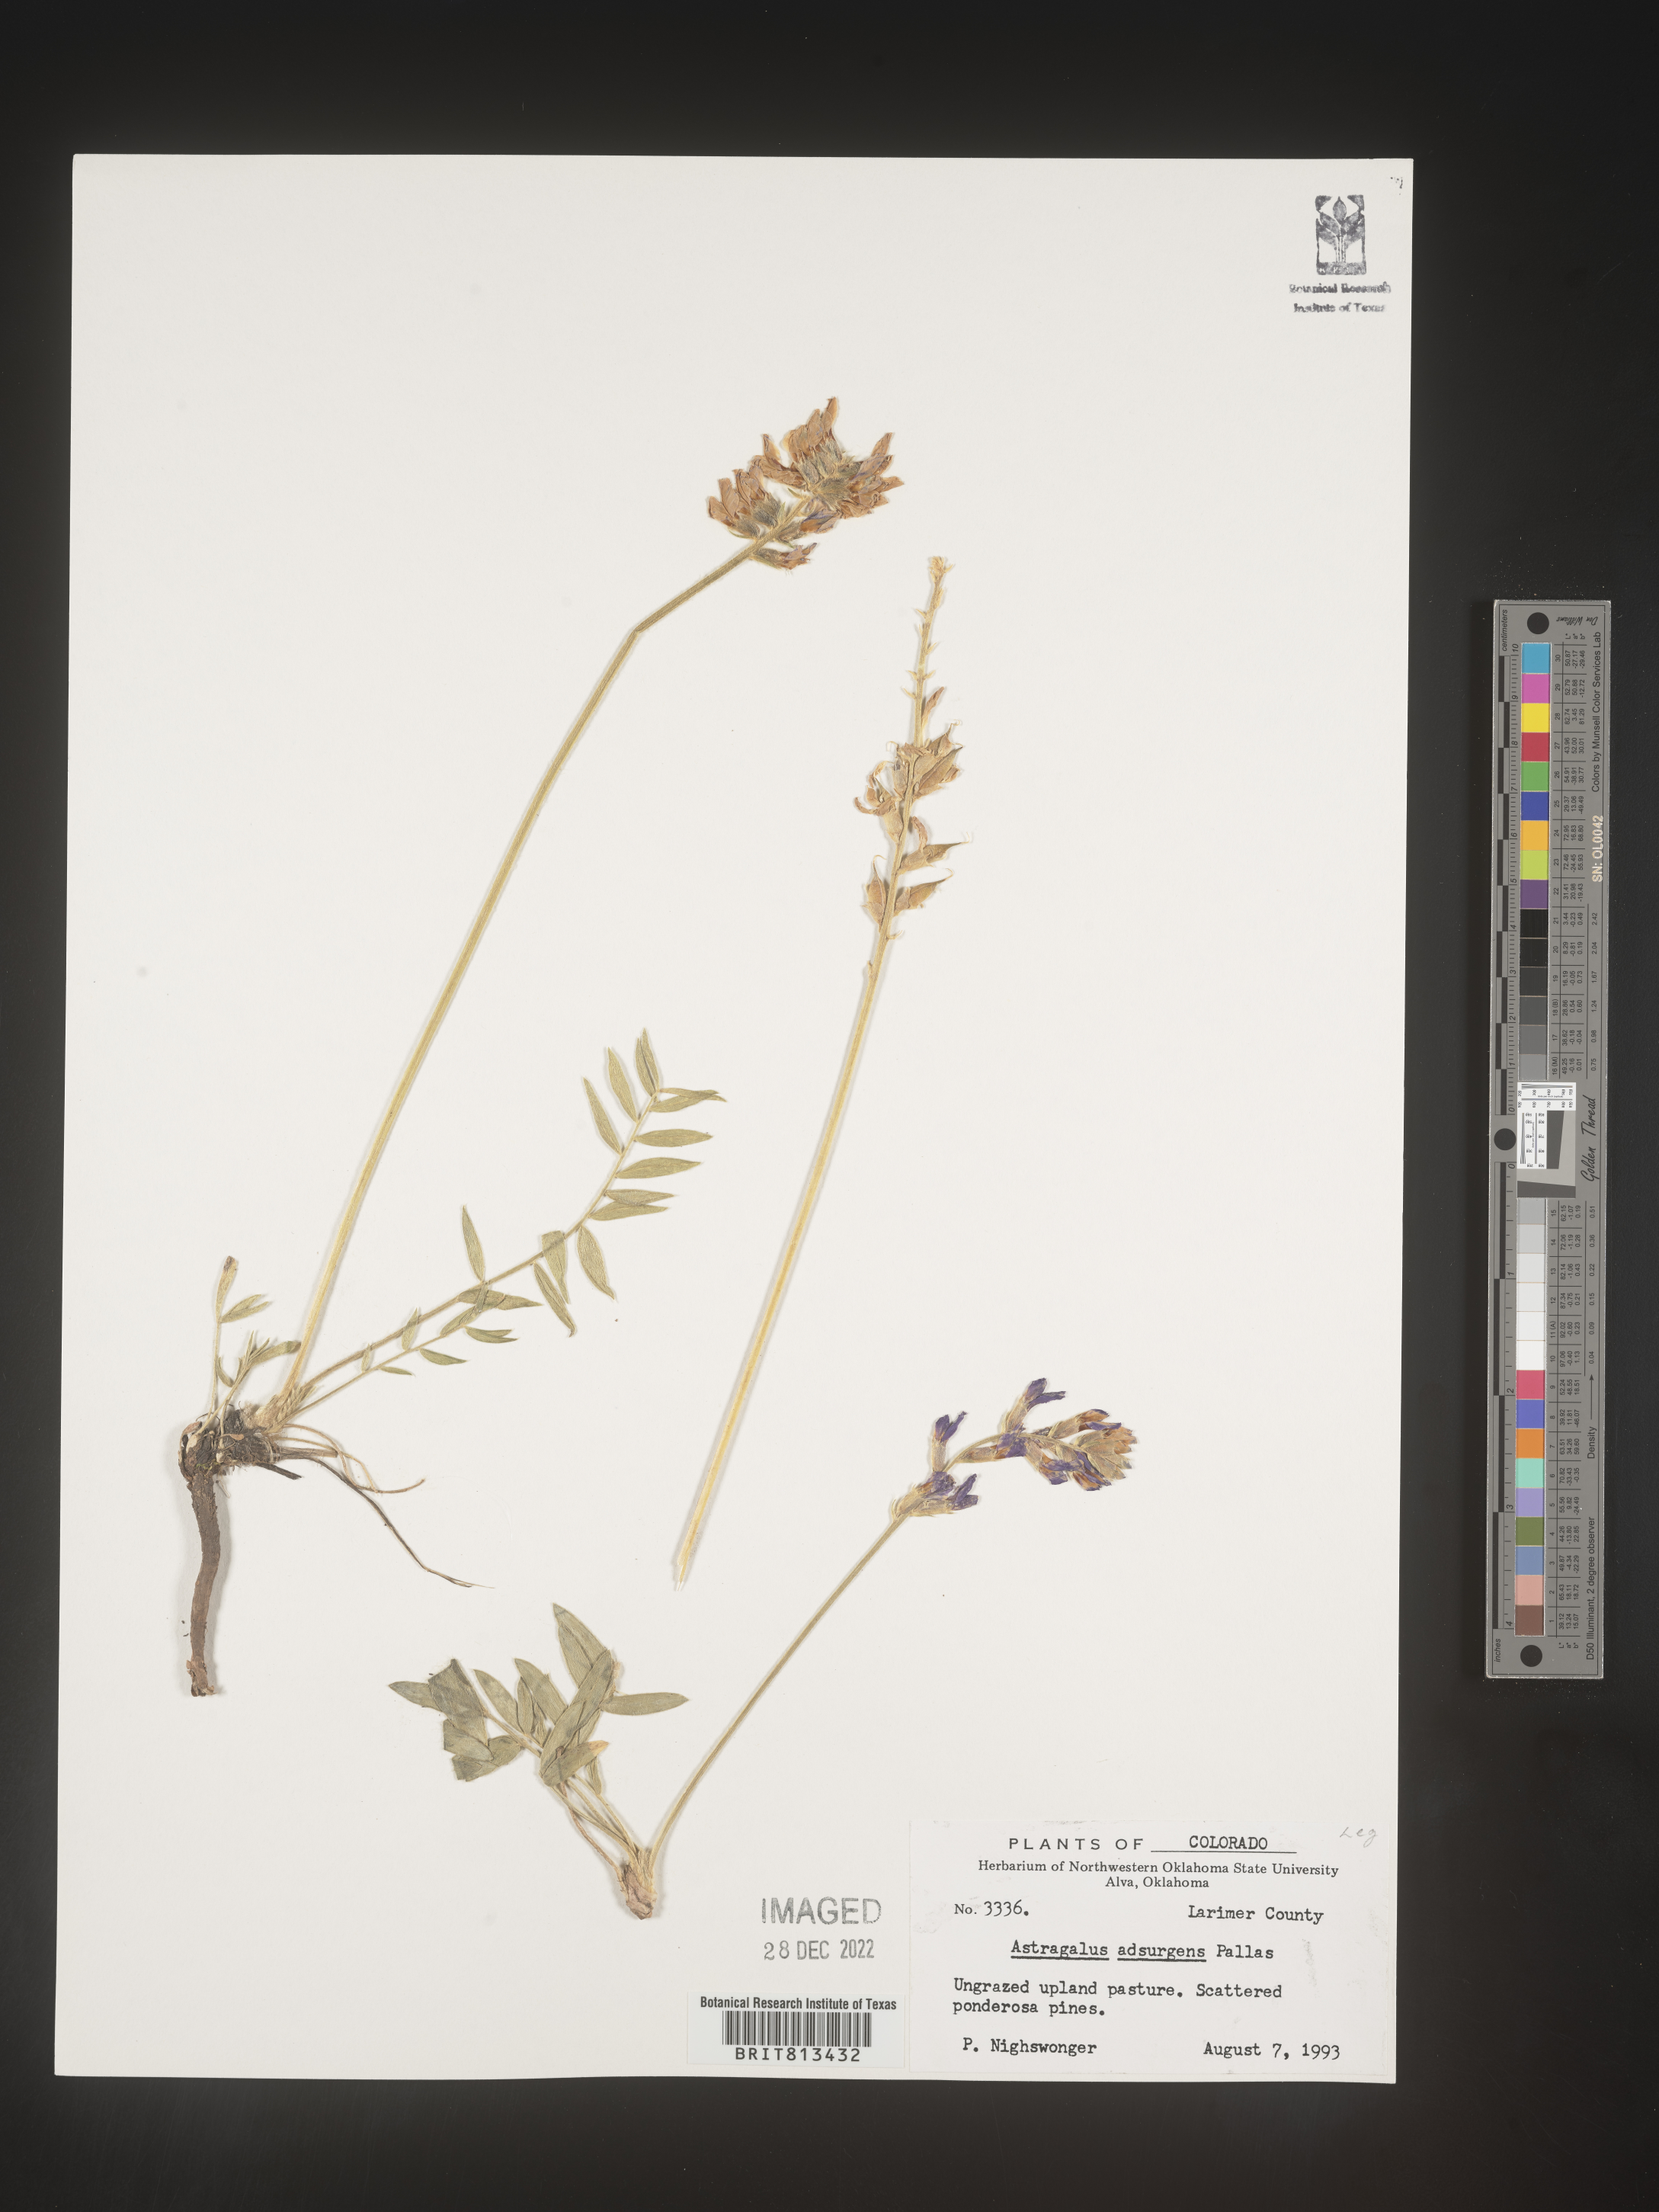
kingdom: Plantae
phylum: Tracheophyta
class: Magnoliopsida
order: Fabales
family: Fabaceae
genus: Astragalus
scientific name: Astragalus
